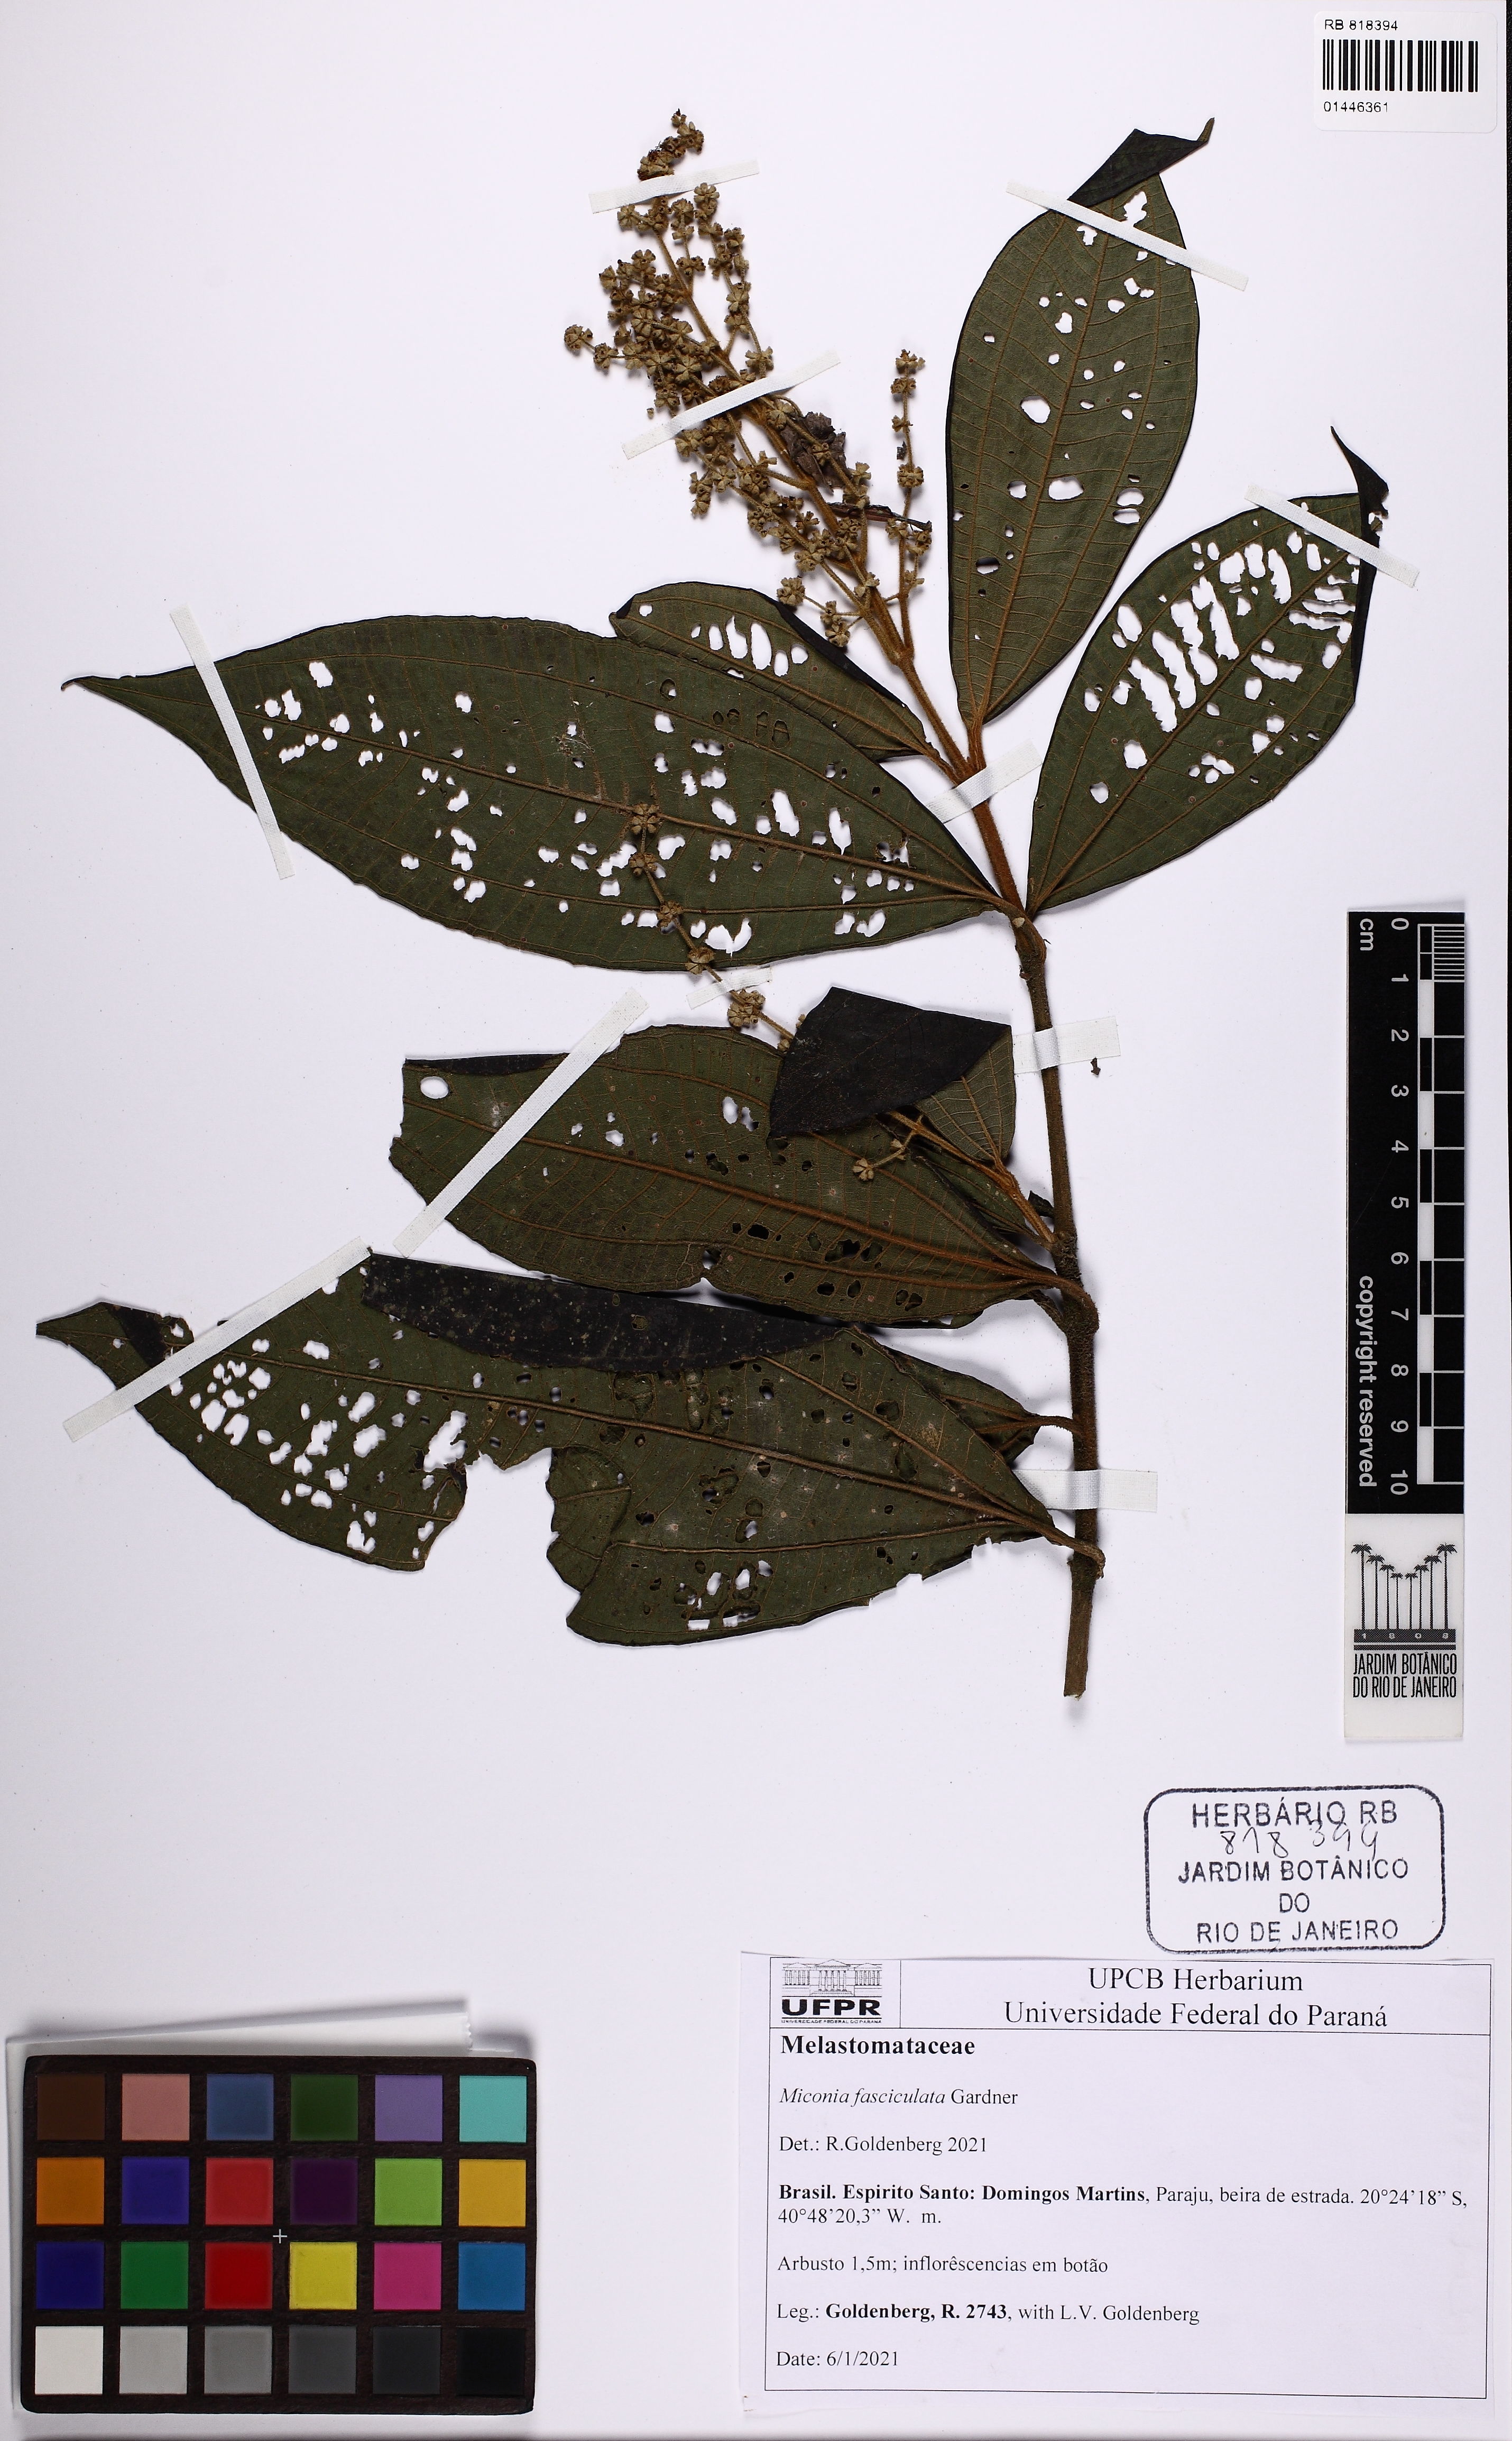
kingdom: Plantae
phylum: Tracheophyta
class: Magnoliopsida
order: Myrtales
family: Melastomataceae
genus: Miconia
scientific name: Miconia fasciculata
